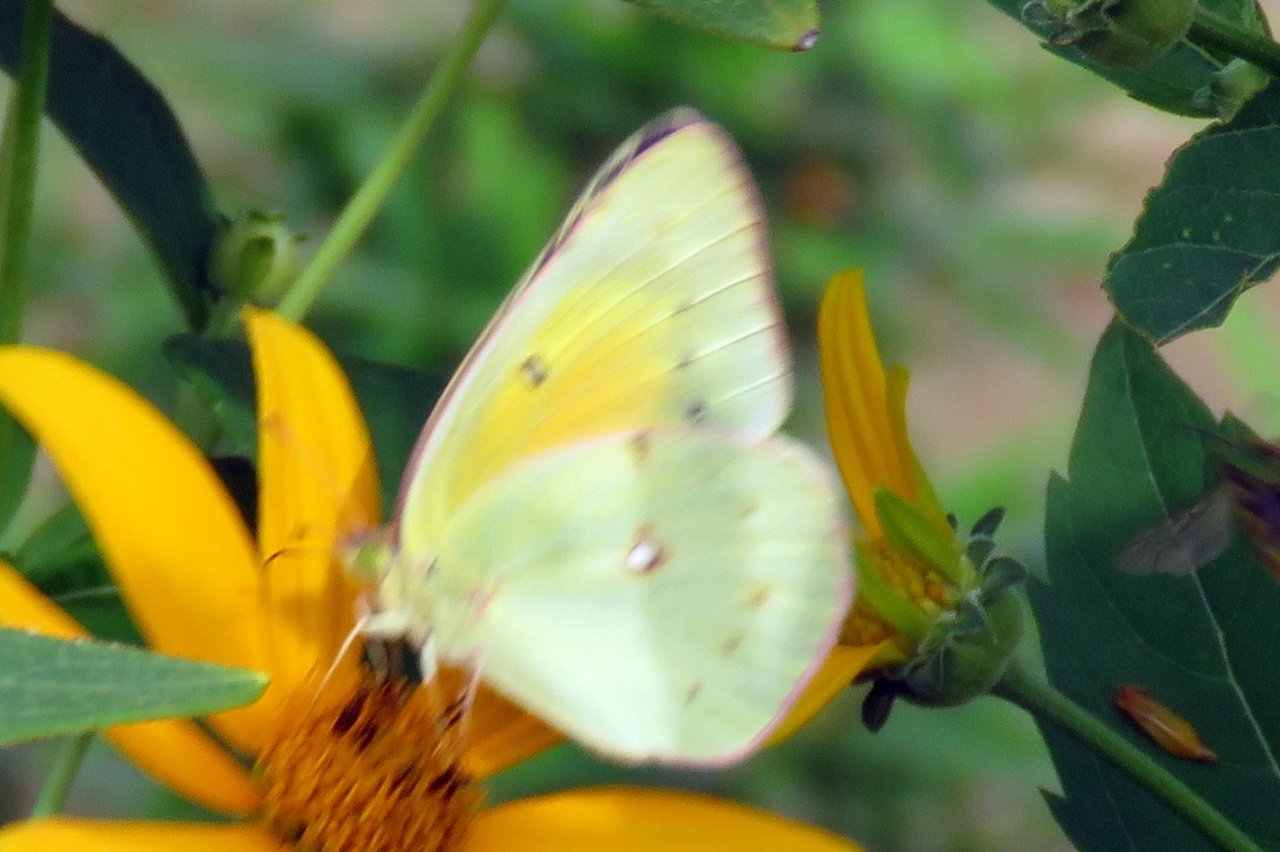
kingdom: Animalia
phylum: Arthropoda
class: Insecta
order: Lepidoptera
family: Pieridae
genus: Colias
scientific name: Colias eurytheme
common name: Orange Sulphur
